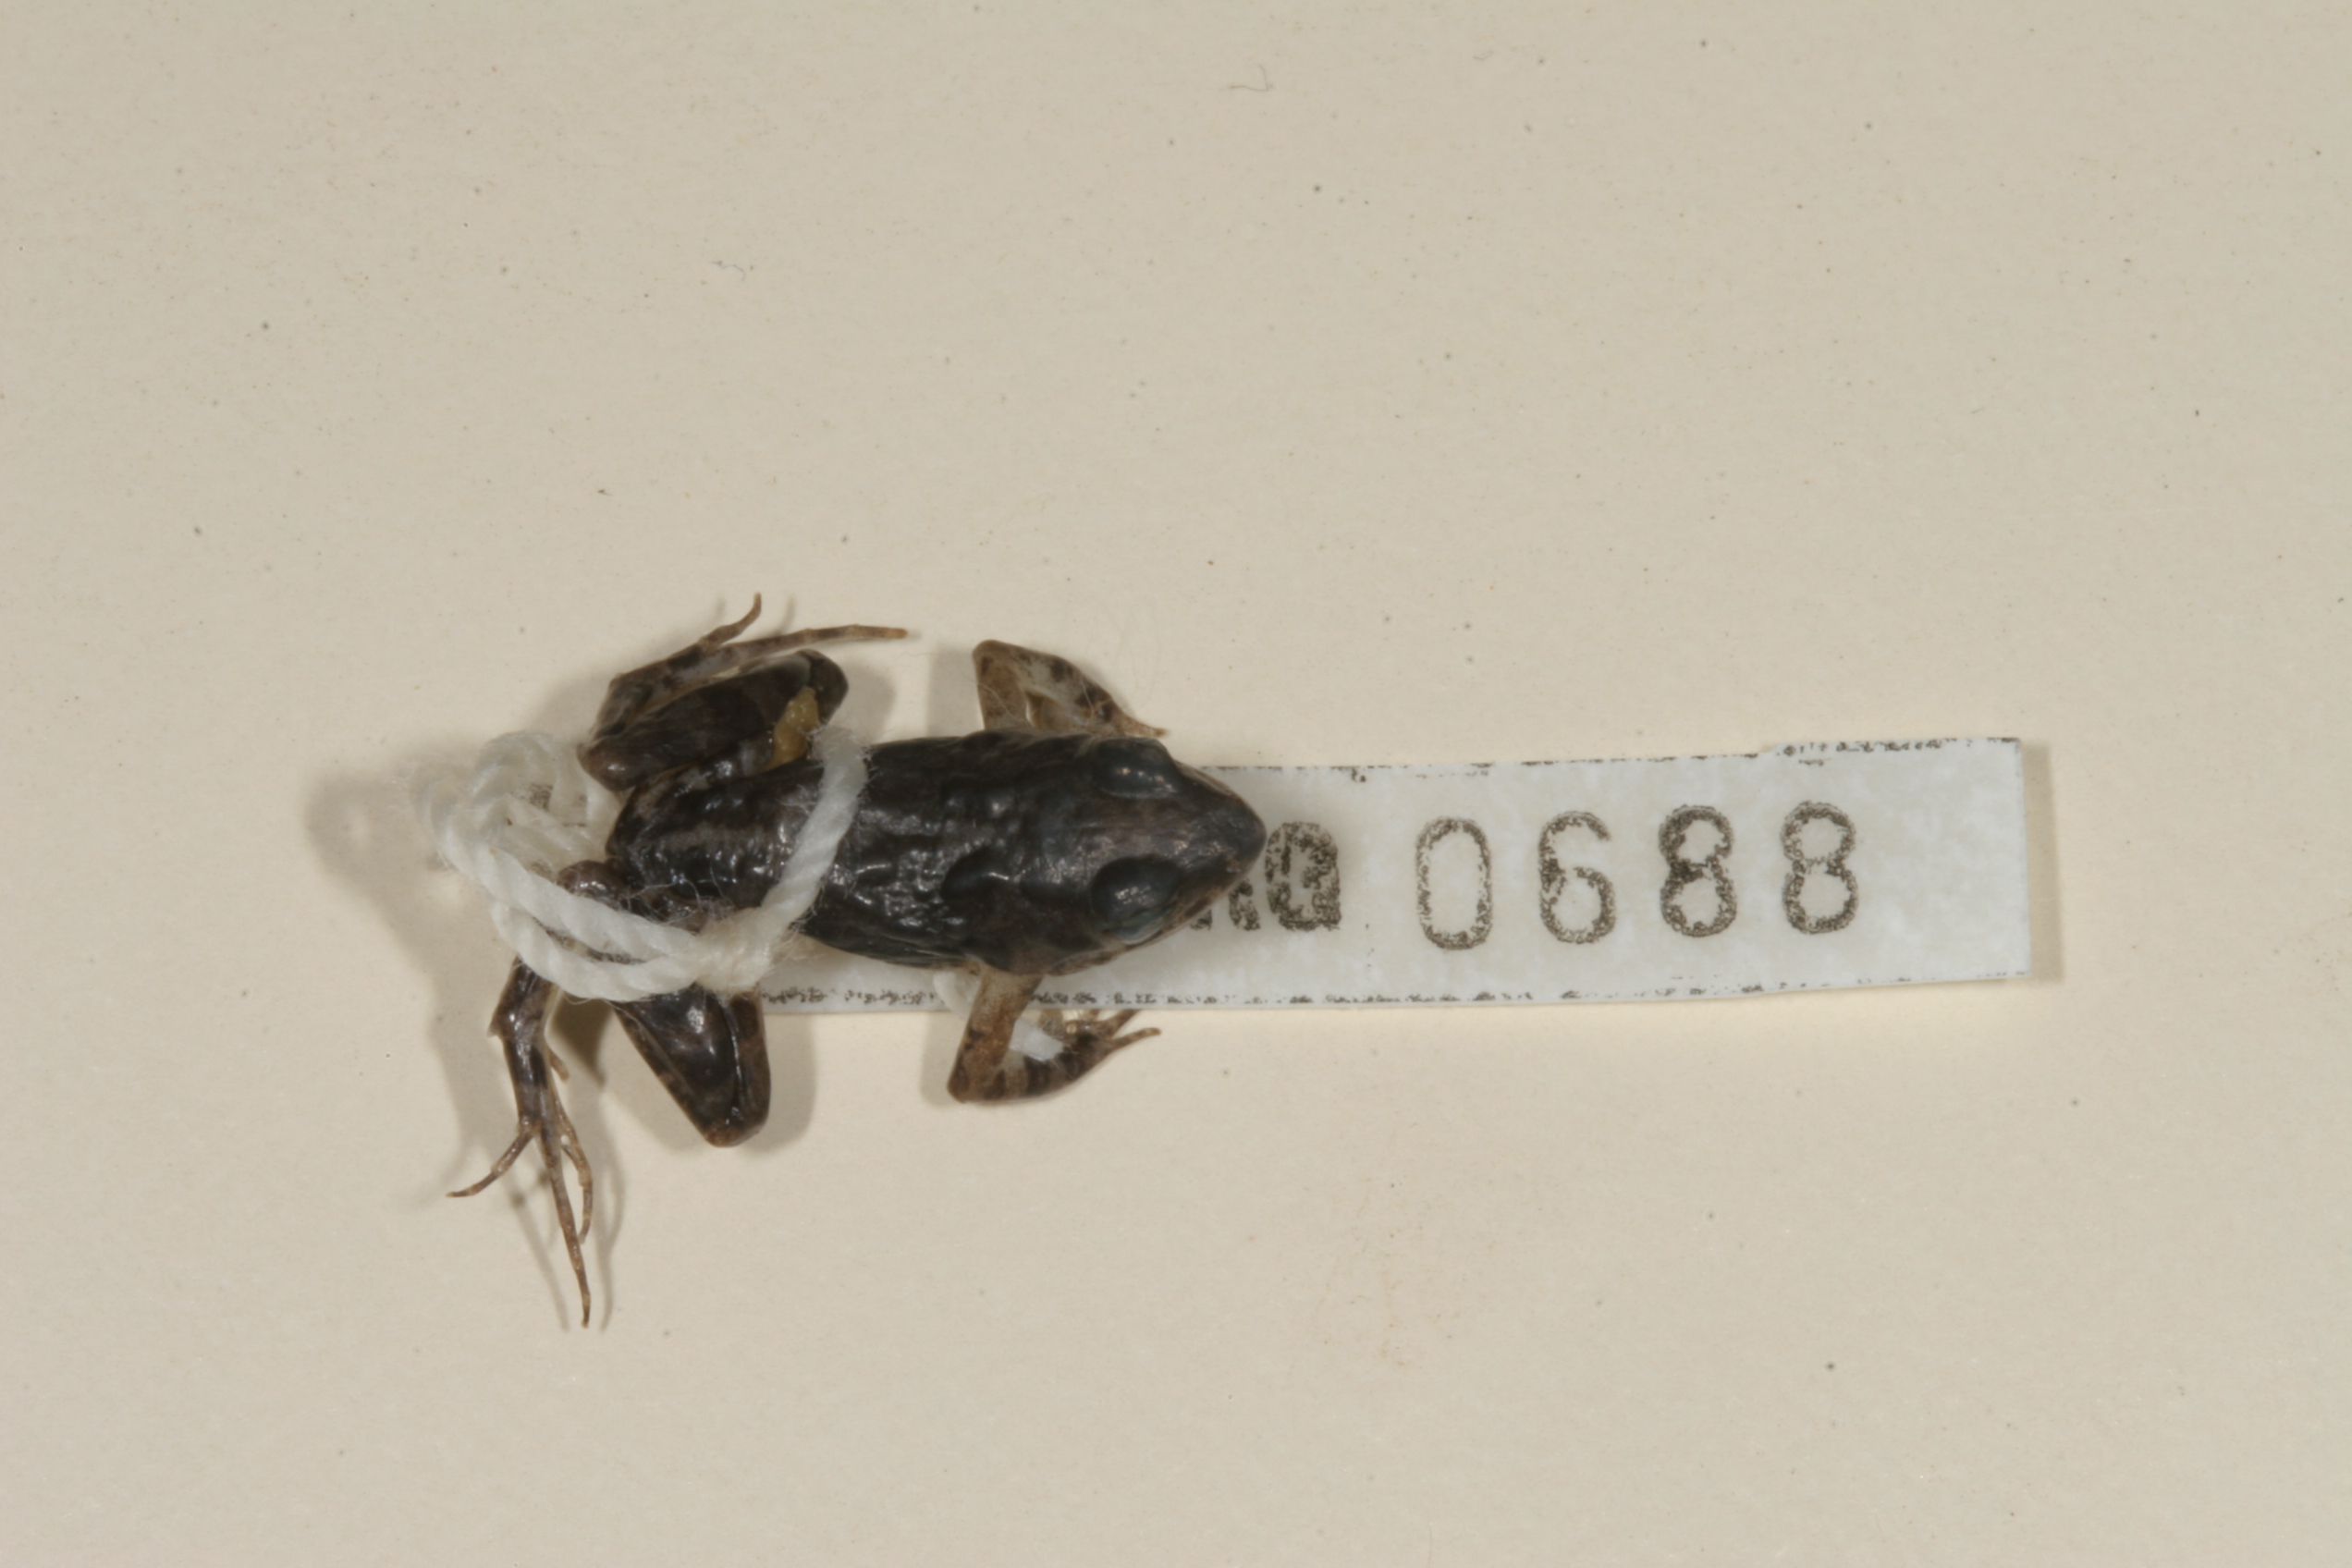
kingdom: Animalia
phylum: Chordata
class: Amphibia
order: Anura
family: Phrynobatrachidae
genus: Phrynobatrachus
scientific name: Phrynobatrachus mababiensis
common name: Dwarf puddle frog
